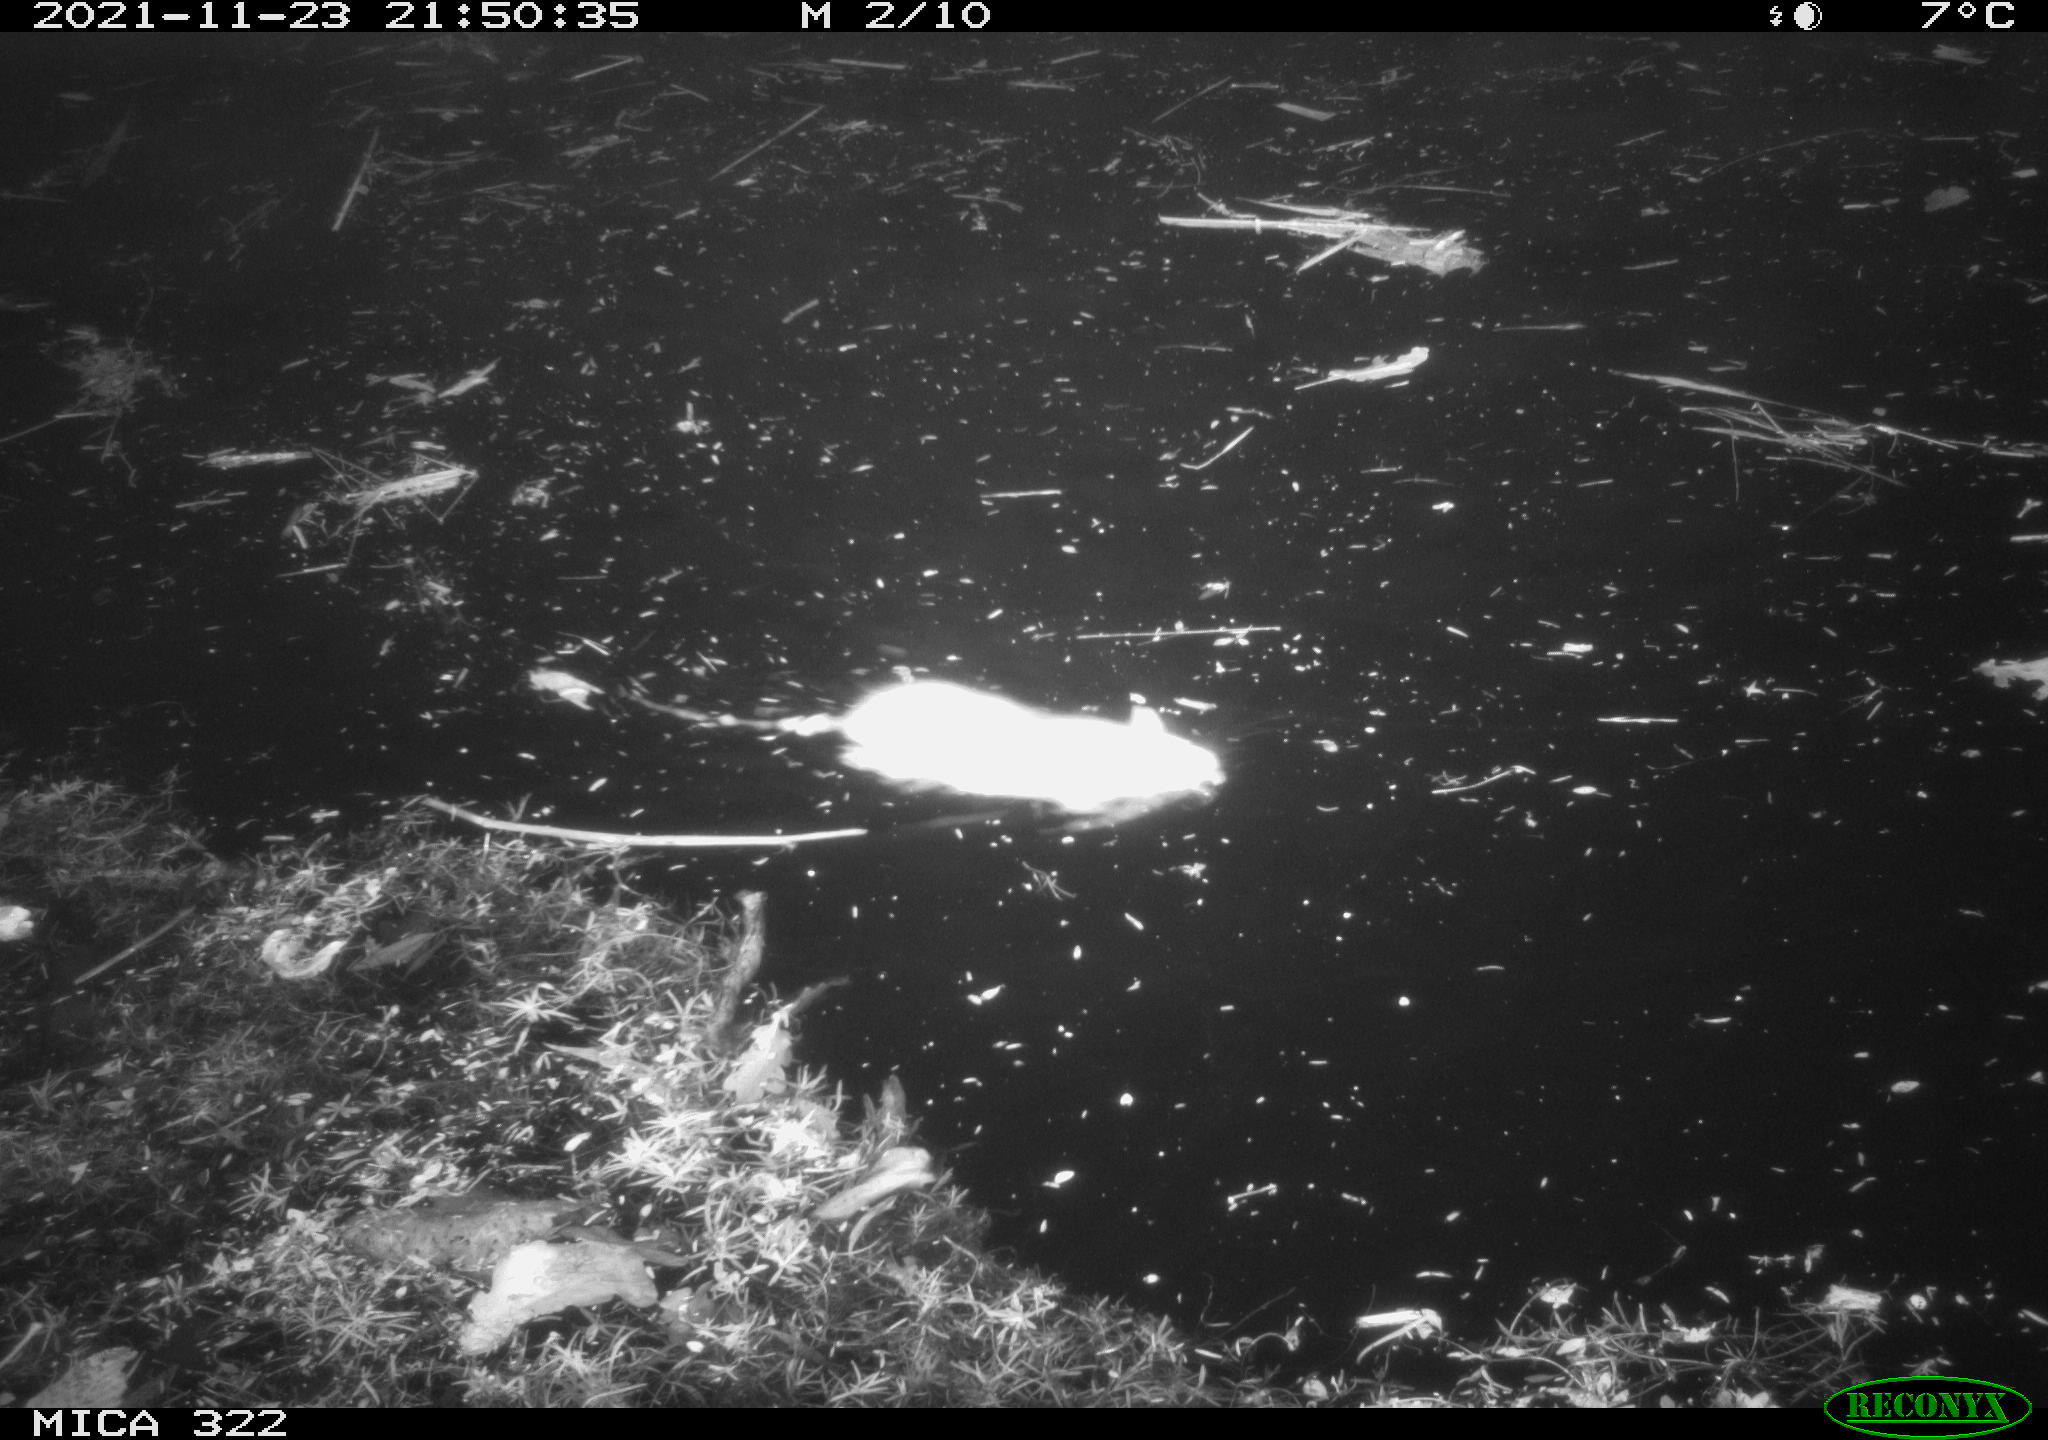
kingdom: Animalia
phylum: Chordata
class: Mammalia
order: Rodentia
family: Muridae
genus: Rattus
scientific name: Rattus norvegicus
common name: Brown rat
